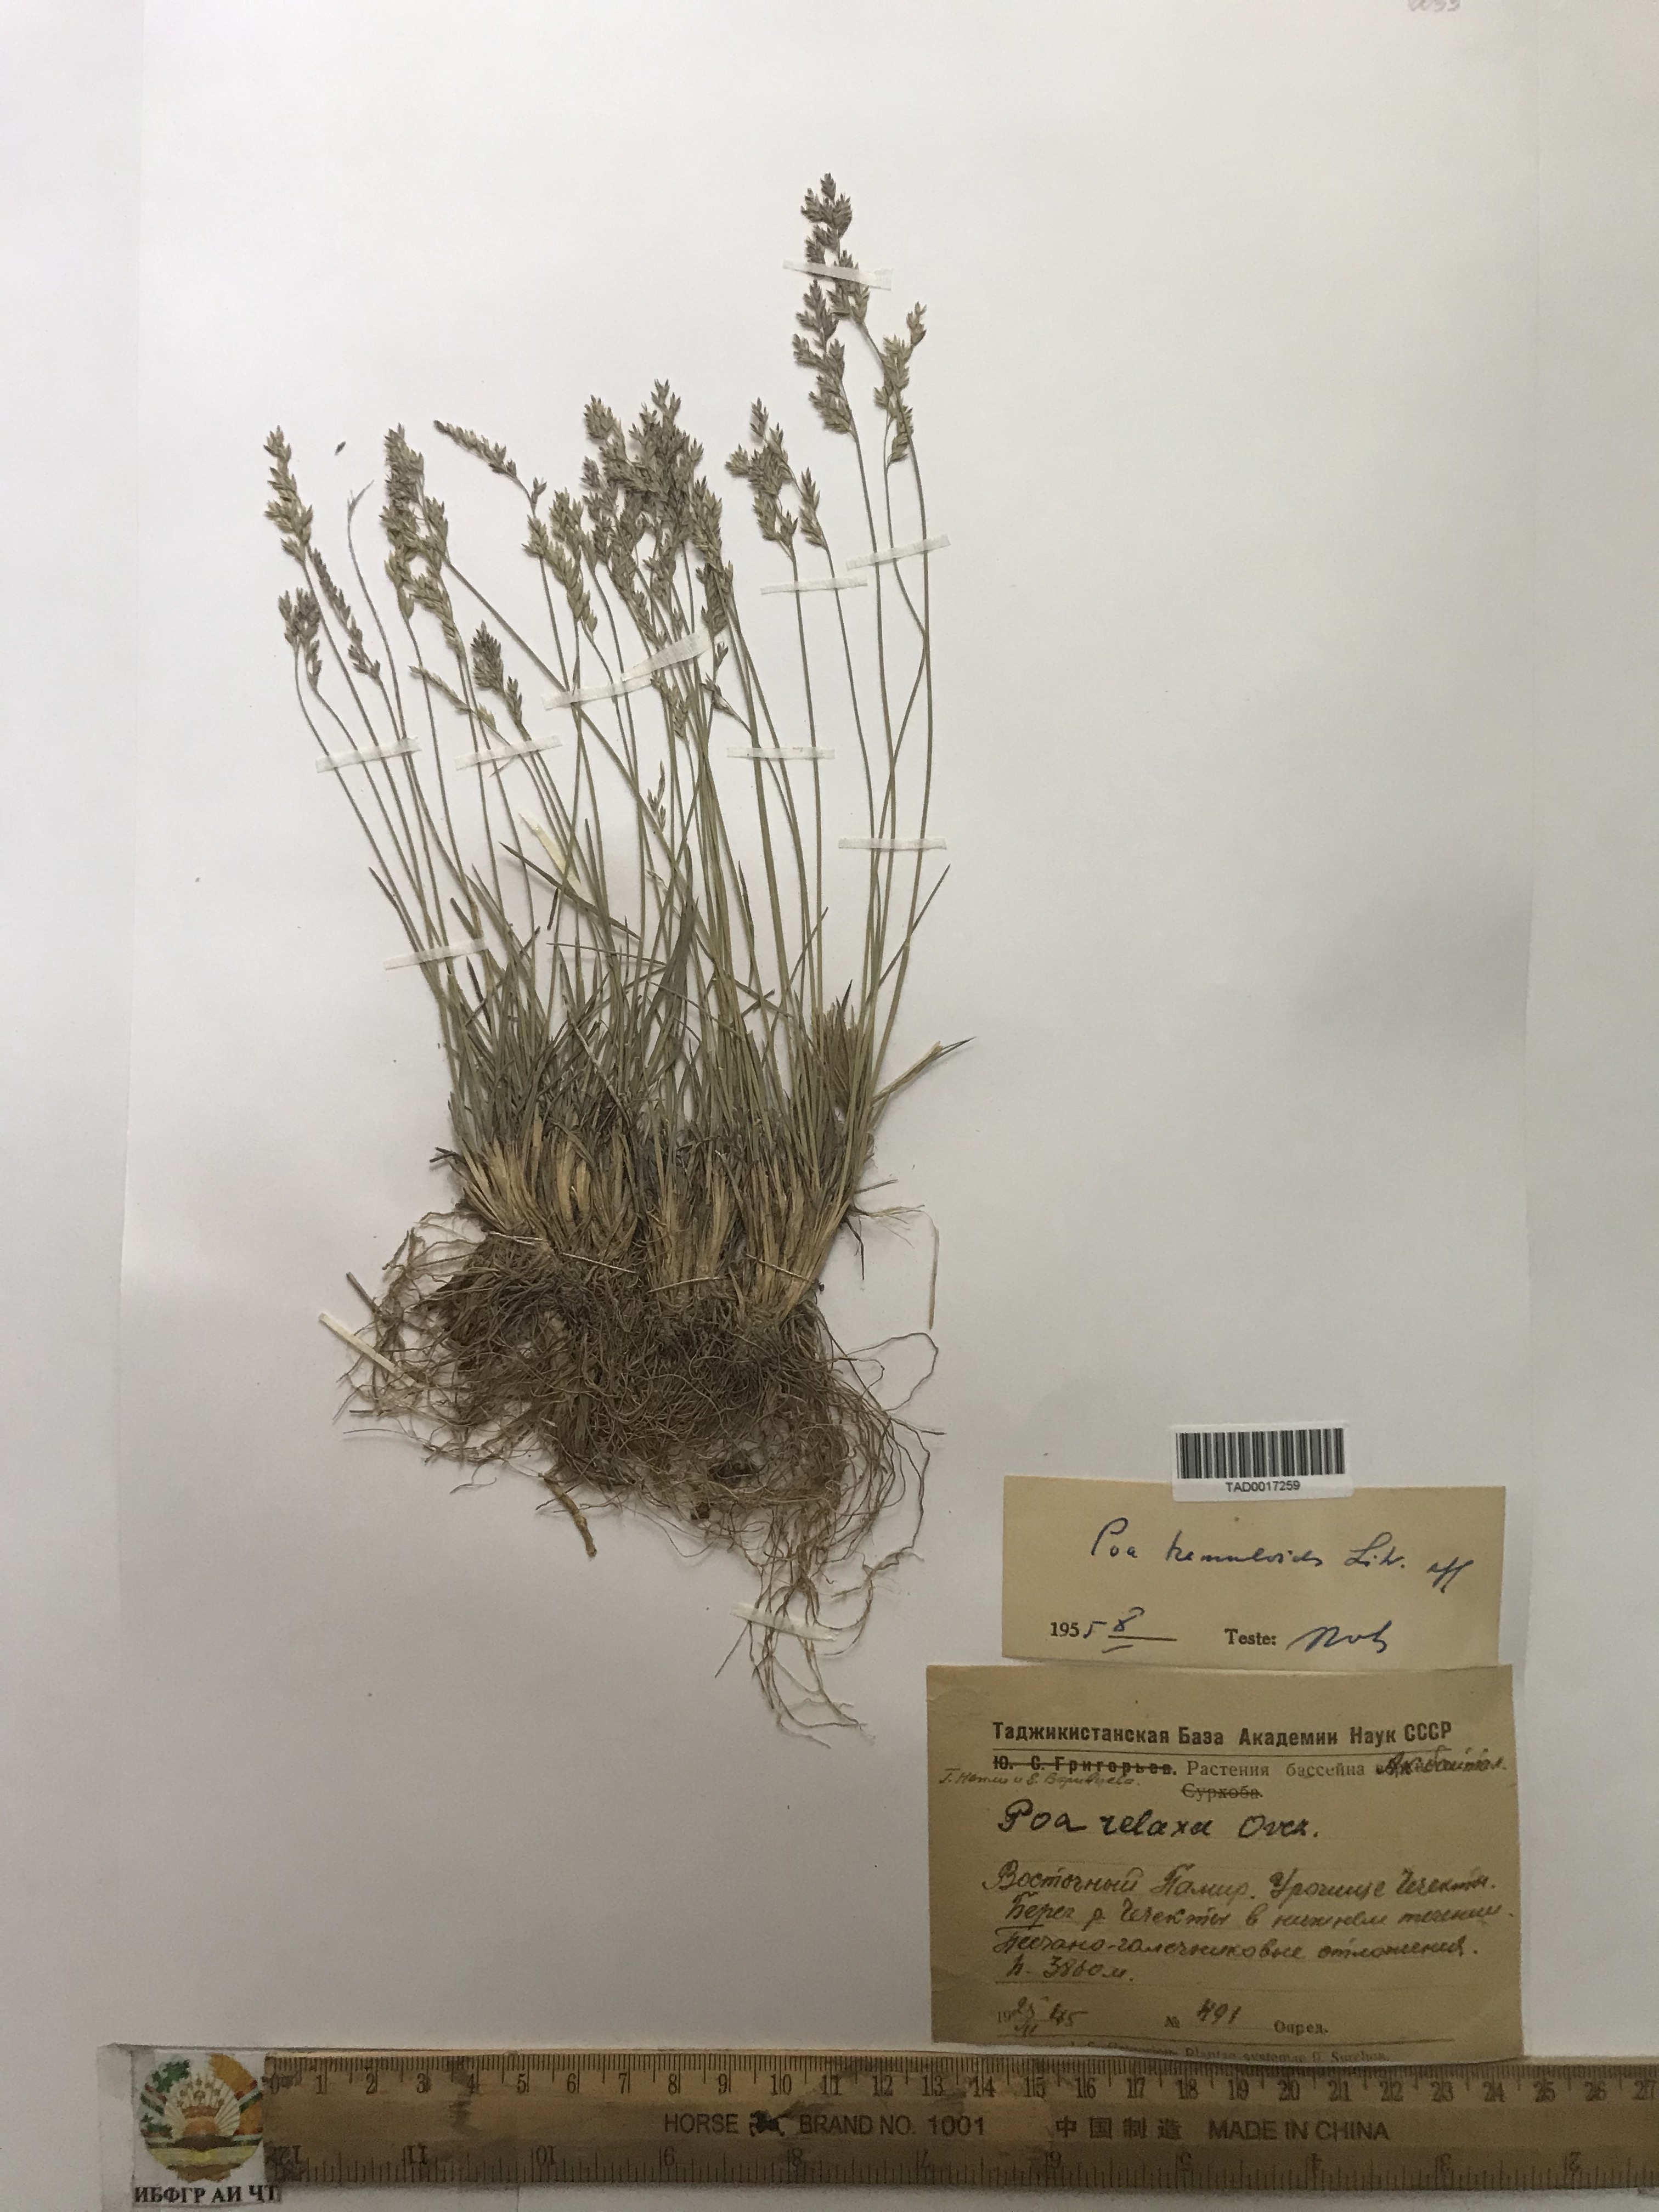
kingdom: Plantae
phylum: Tracheophyta
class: Liliopsida
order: Poales
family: Poaceae
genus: Poa
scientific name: Poa nemoralis
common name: Wood bluegrass
